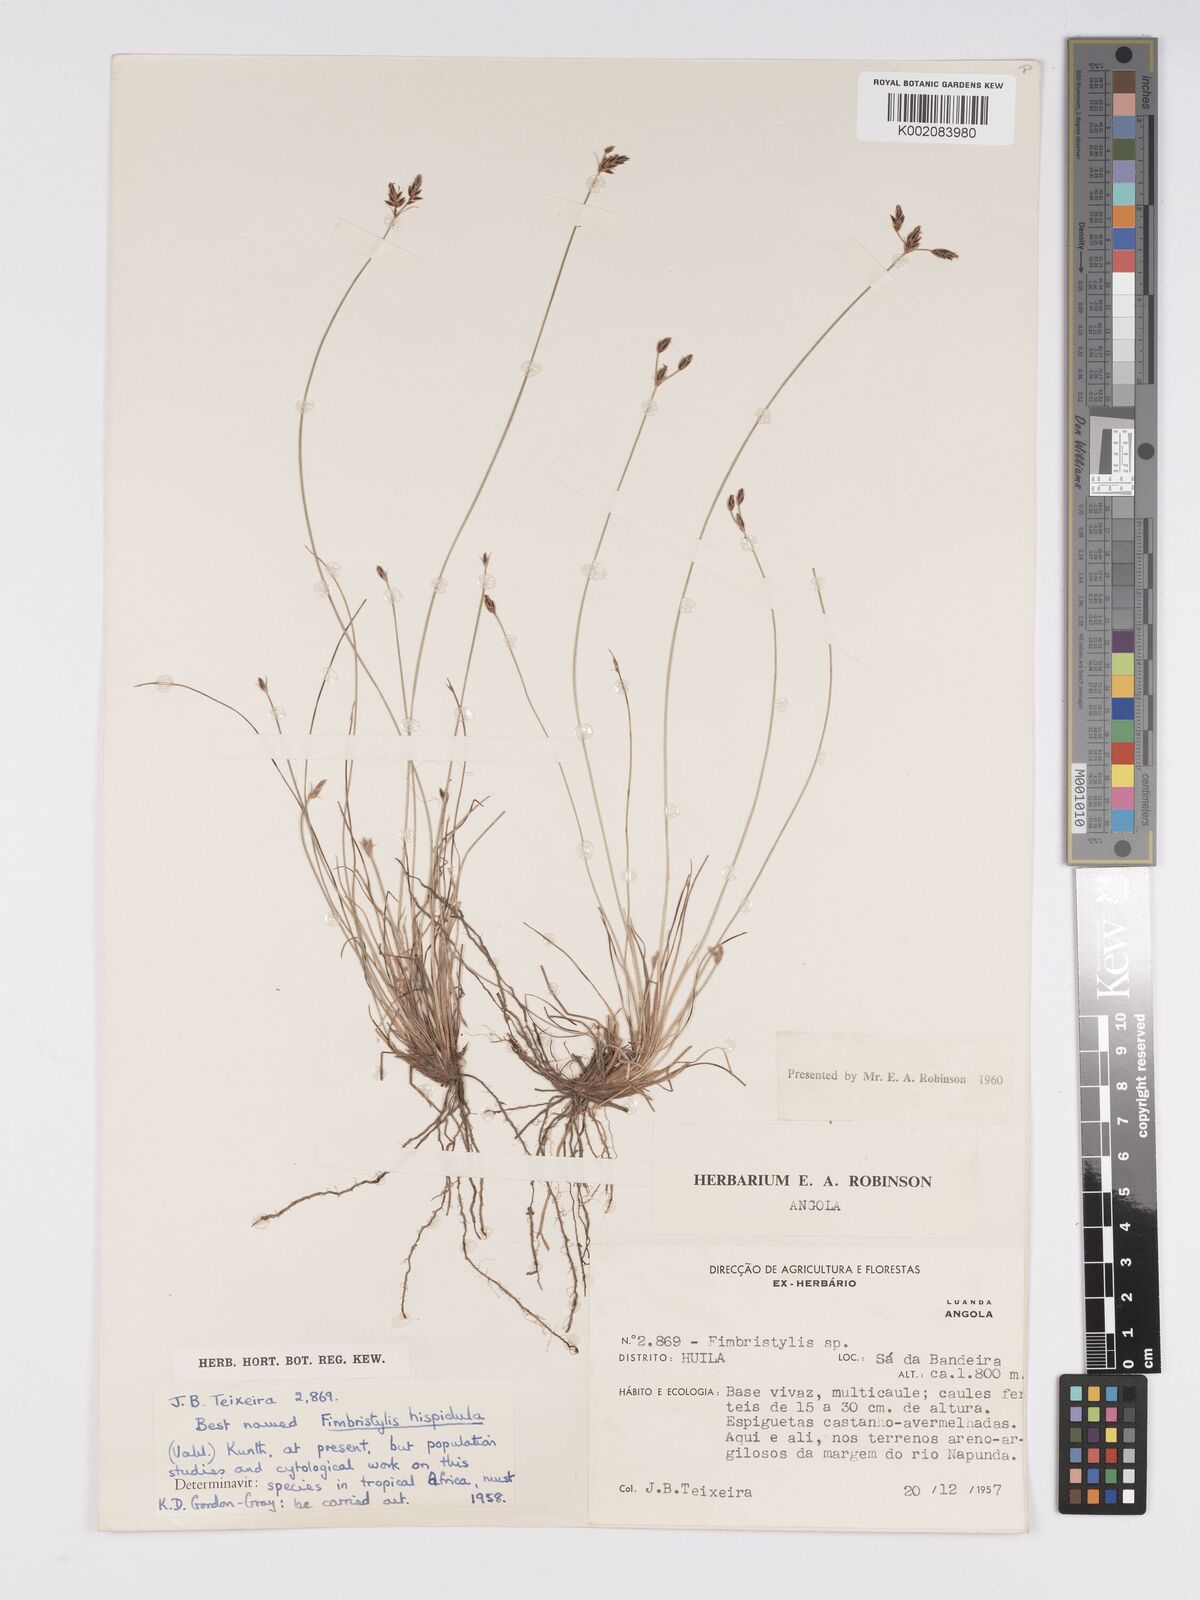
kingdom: Plantae
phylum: Tracheophyta
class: Liliopsida
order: Poales
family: Cyperaceae
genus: Bulbostylis
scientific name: Bulbostylis hispidula
